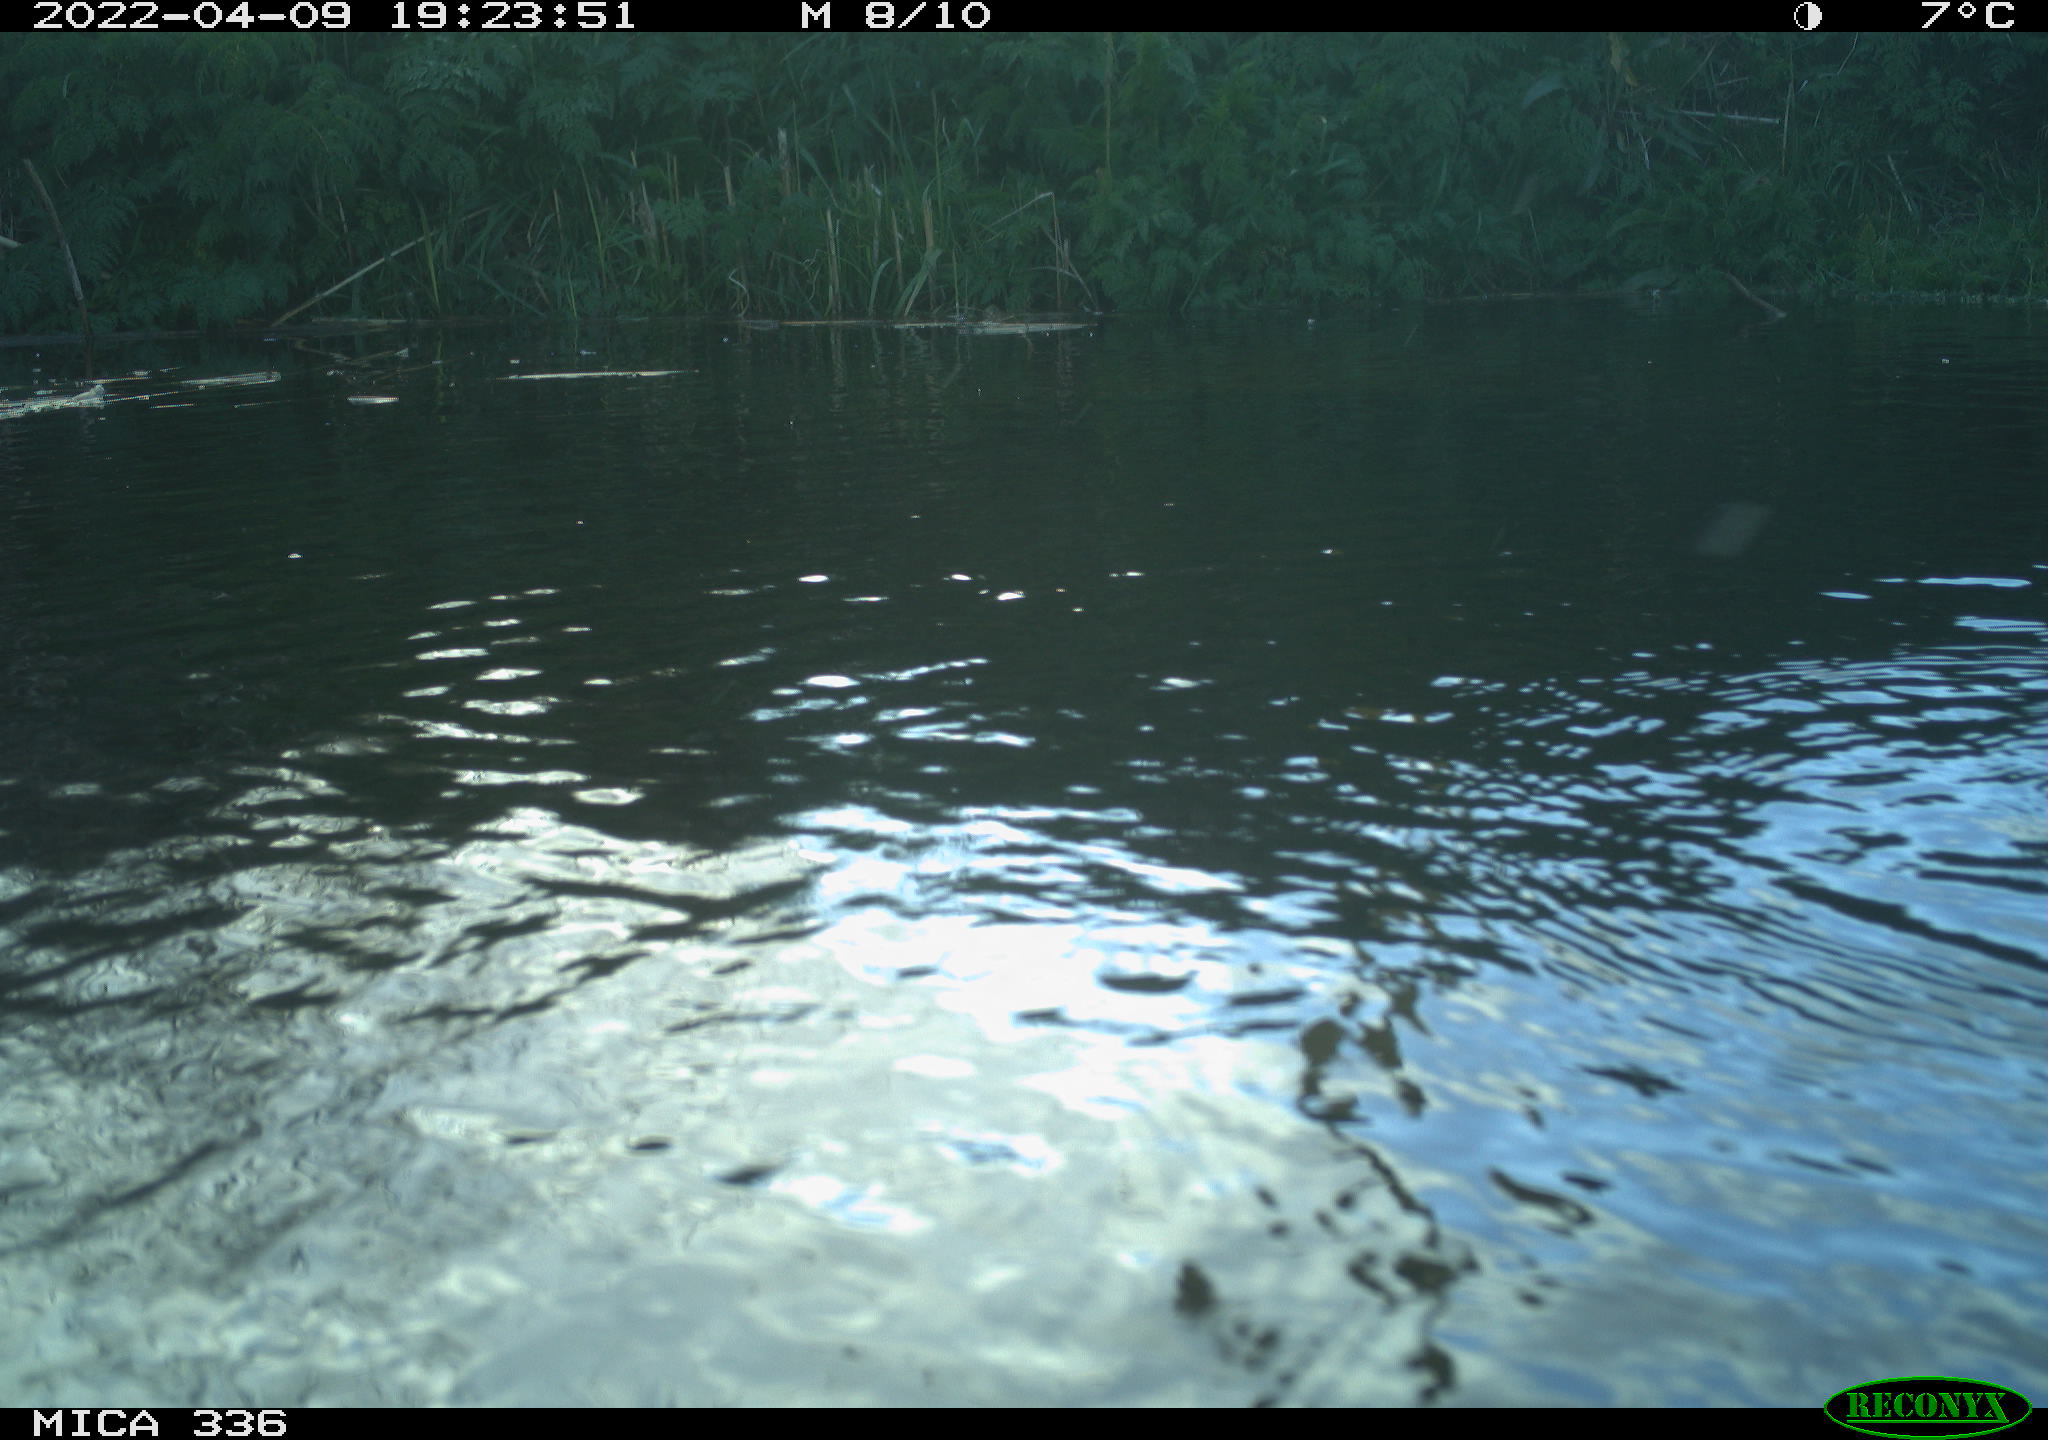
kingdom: Animalia
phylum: Chordata
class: Aves
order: Podicipediformes
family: Podicipedidae
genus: Podiceps
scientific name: Podiceps cristatus
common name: Great crested grebe
